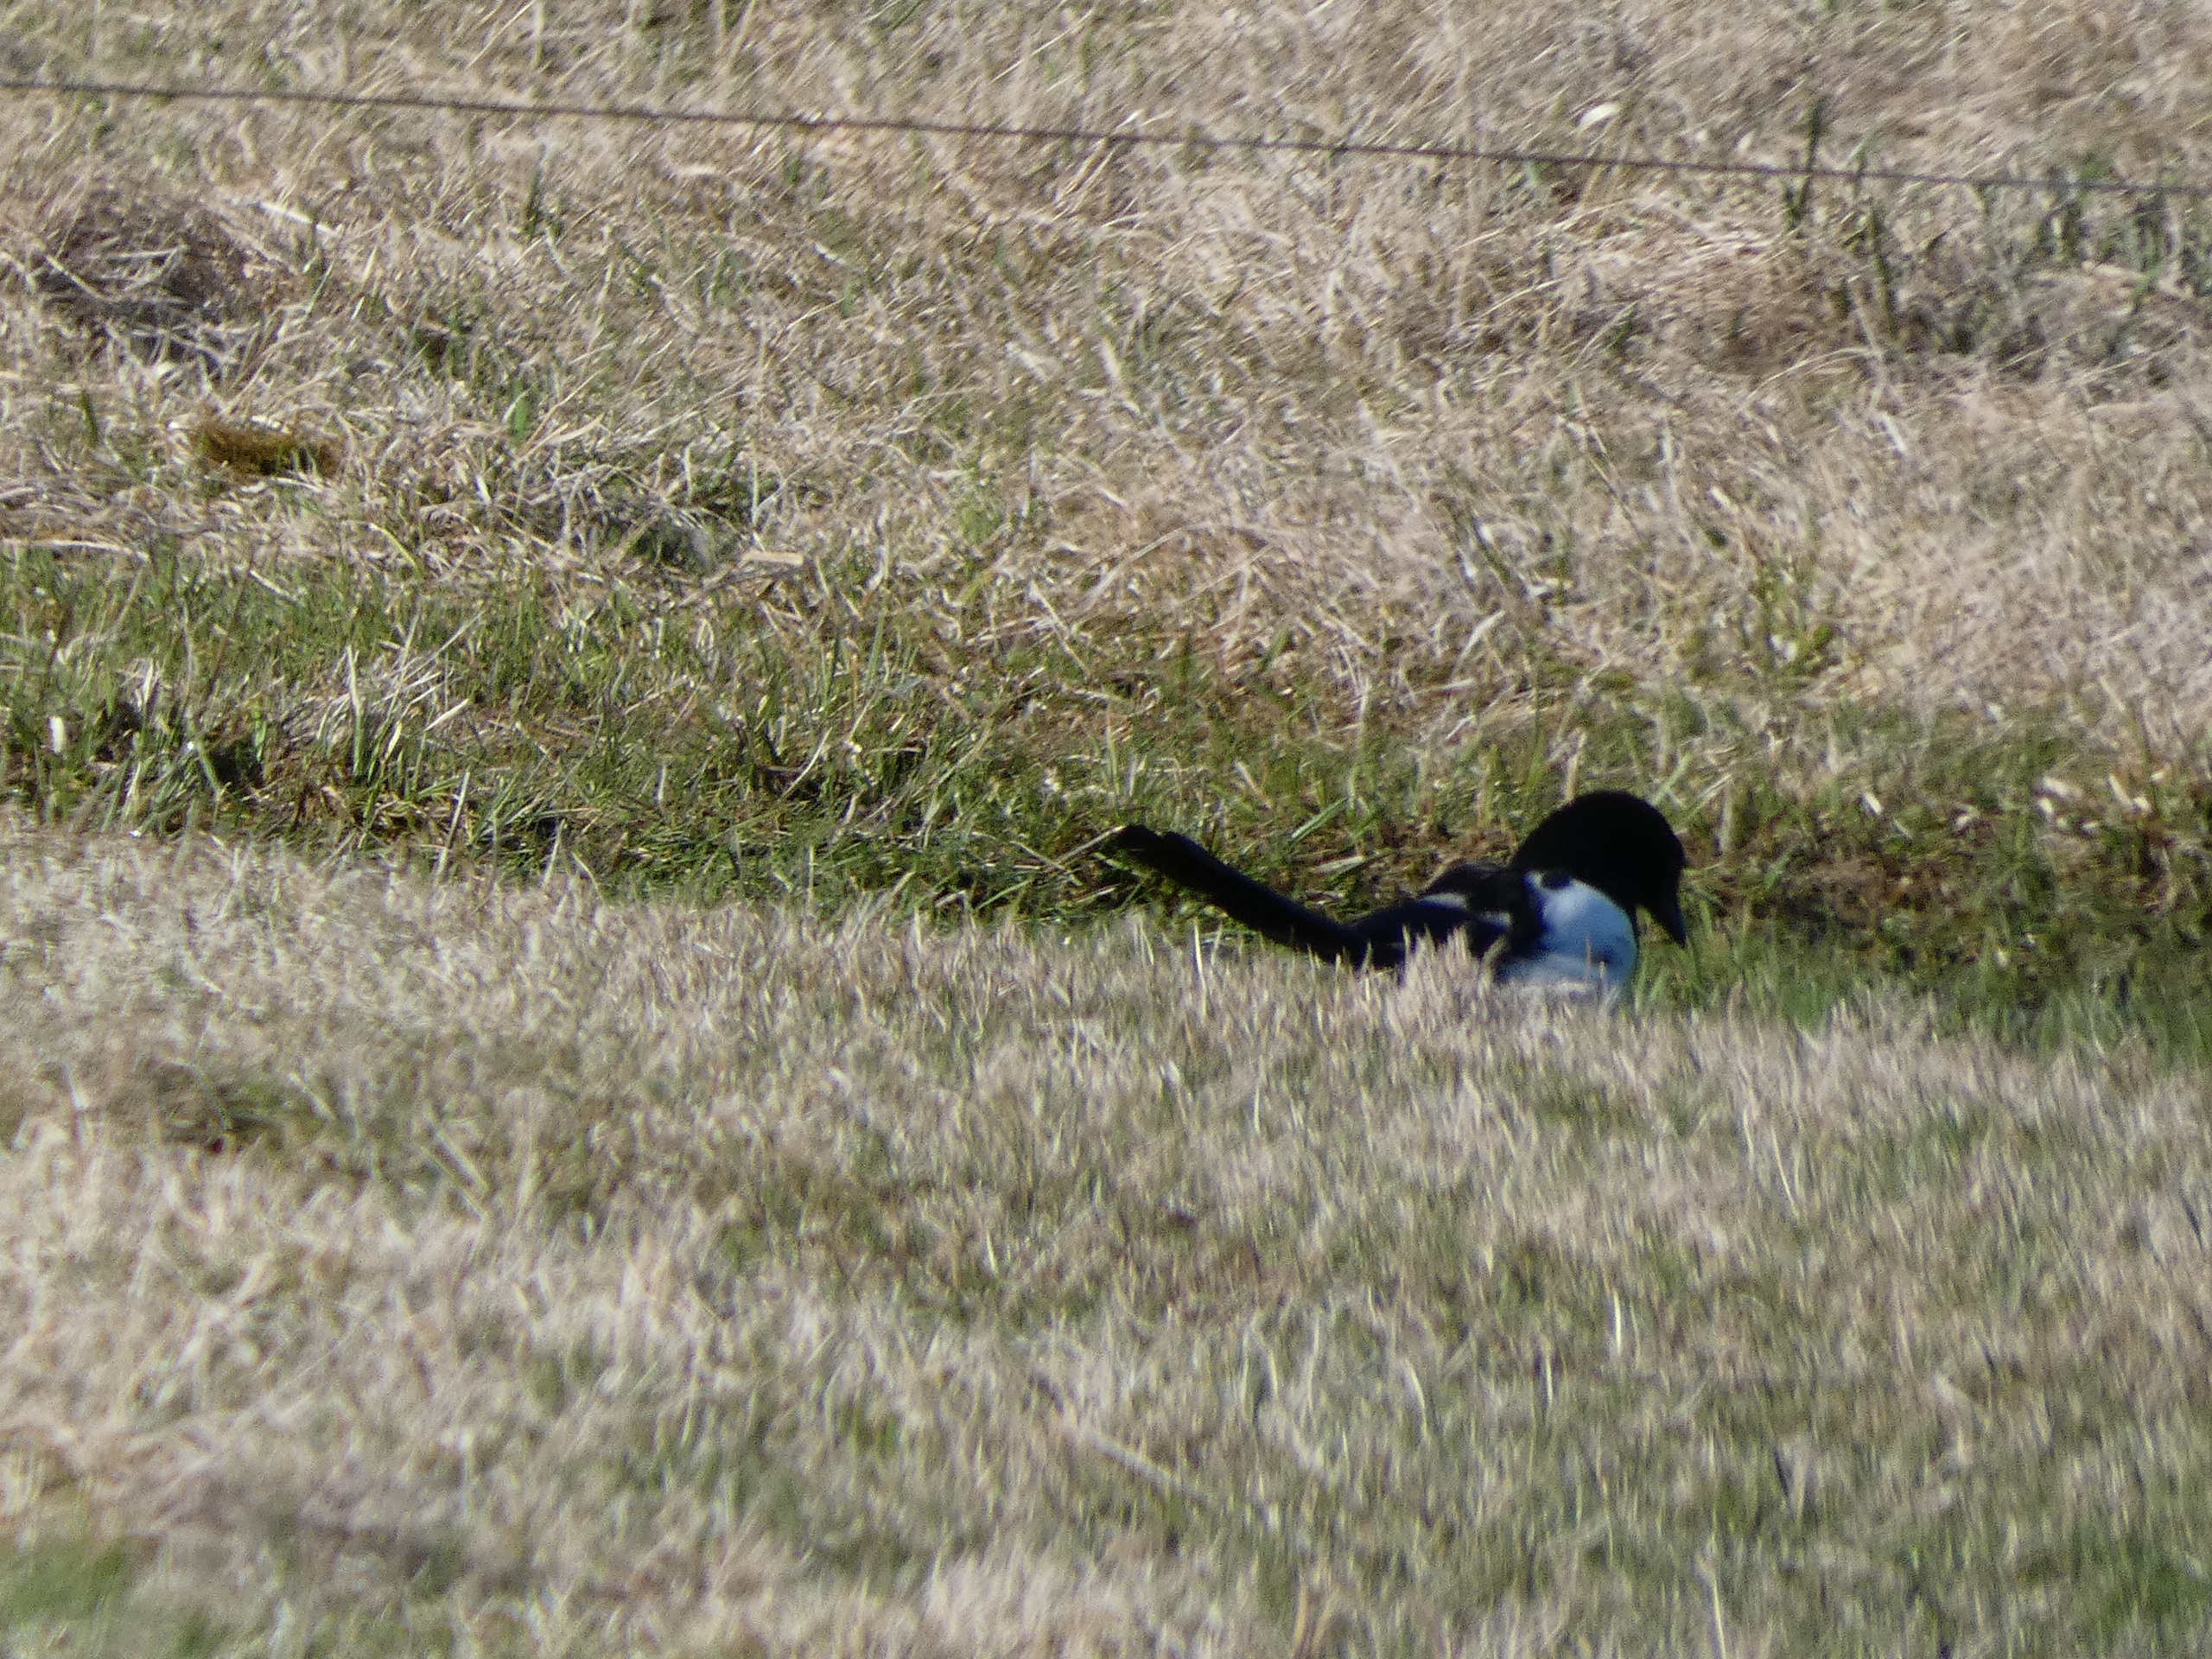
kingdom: Animalia
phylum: Chordata
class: Aves
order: Passeriformes
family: Corvidae
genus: Pica
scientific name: Pica pica
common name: Husskade
